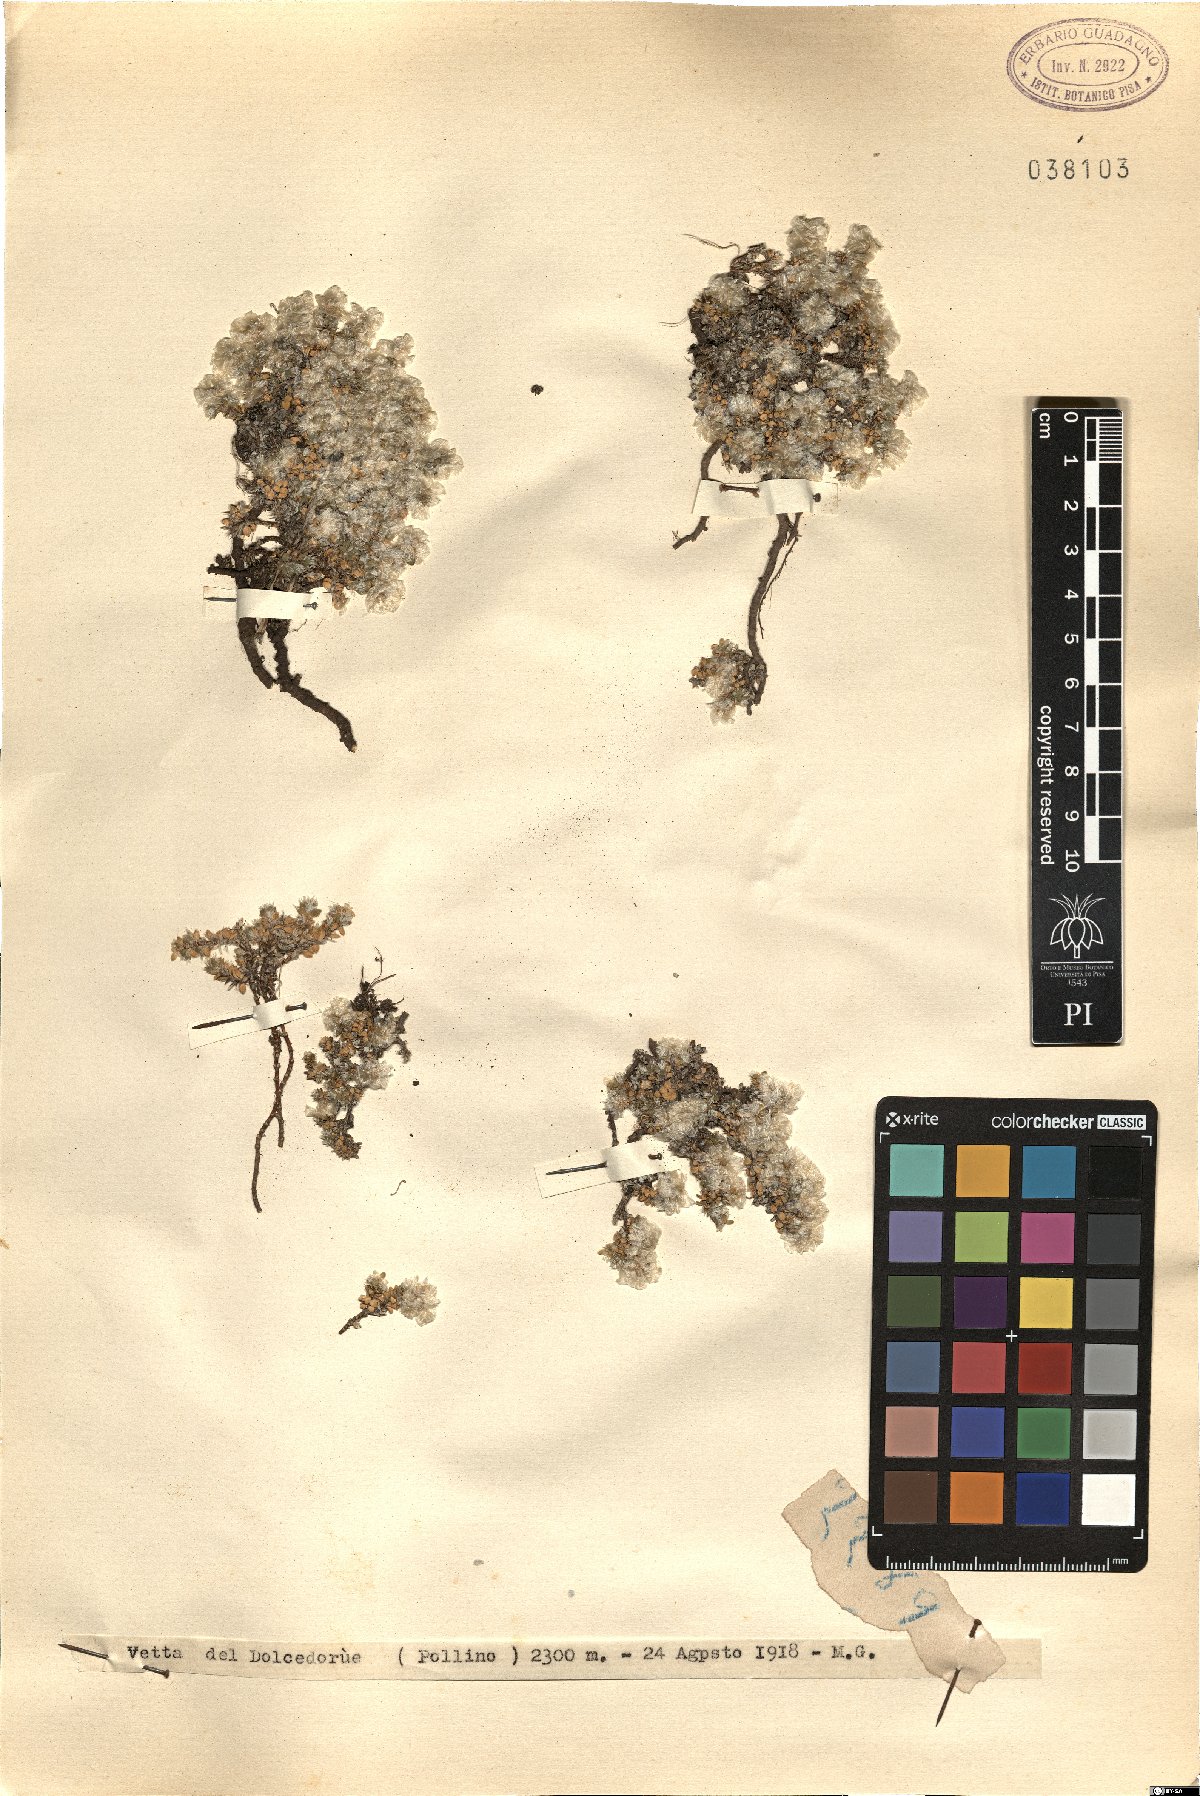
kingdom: Plantae
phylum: Tracheophyta
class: Magnoliopsida
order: Caryophyllales
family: Caryophyllaceae
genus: Paronychia
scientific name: Paronychia
